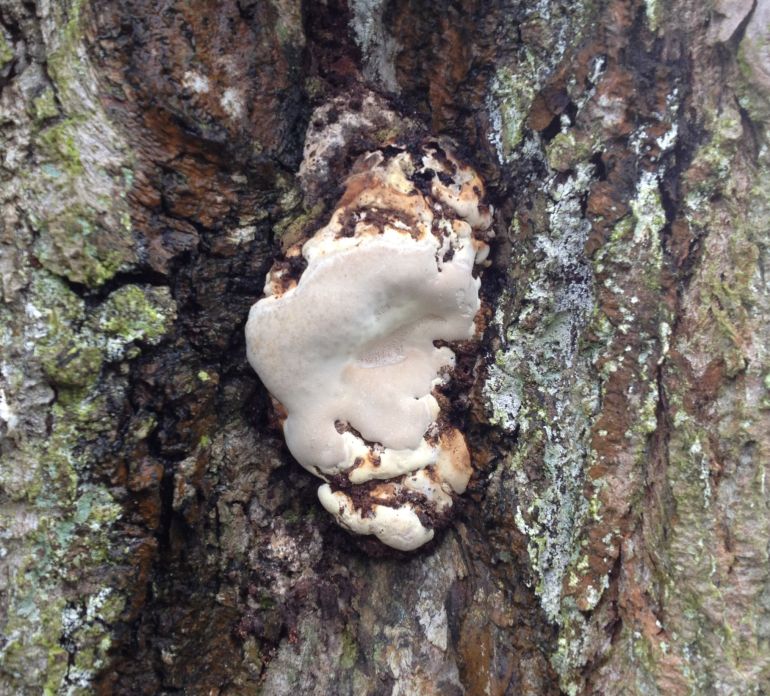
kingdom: Fungi
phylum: Basidiomycota
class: Agaricomycetes
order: Polyporales
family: Polyporaceae
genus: Ganoderma
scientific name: Ganoderma adspersum
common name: grov lakporesvamp
